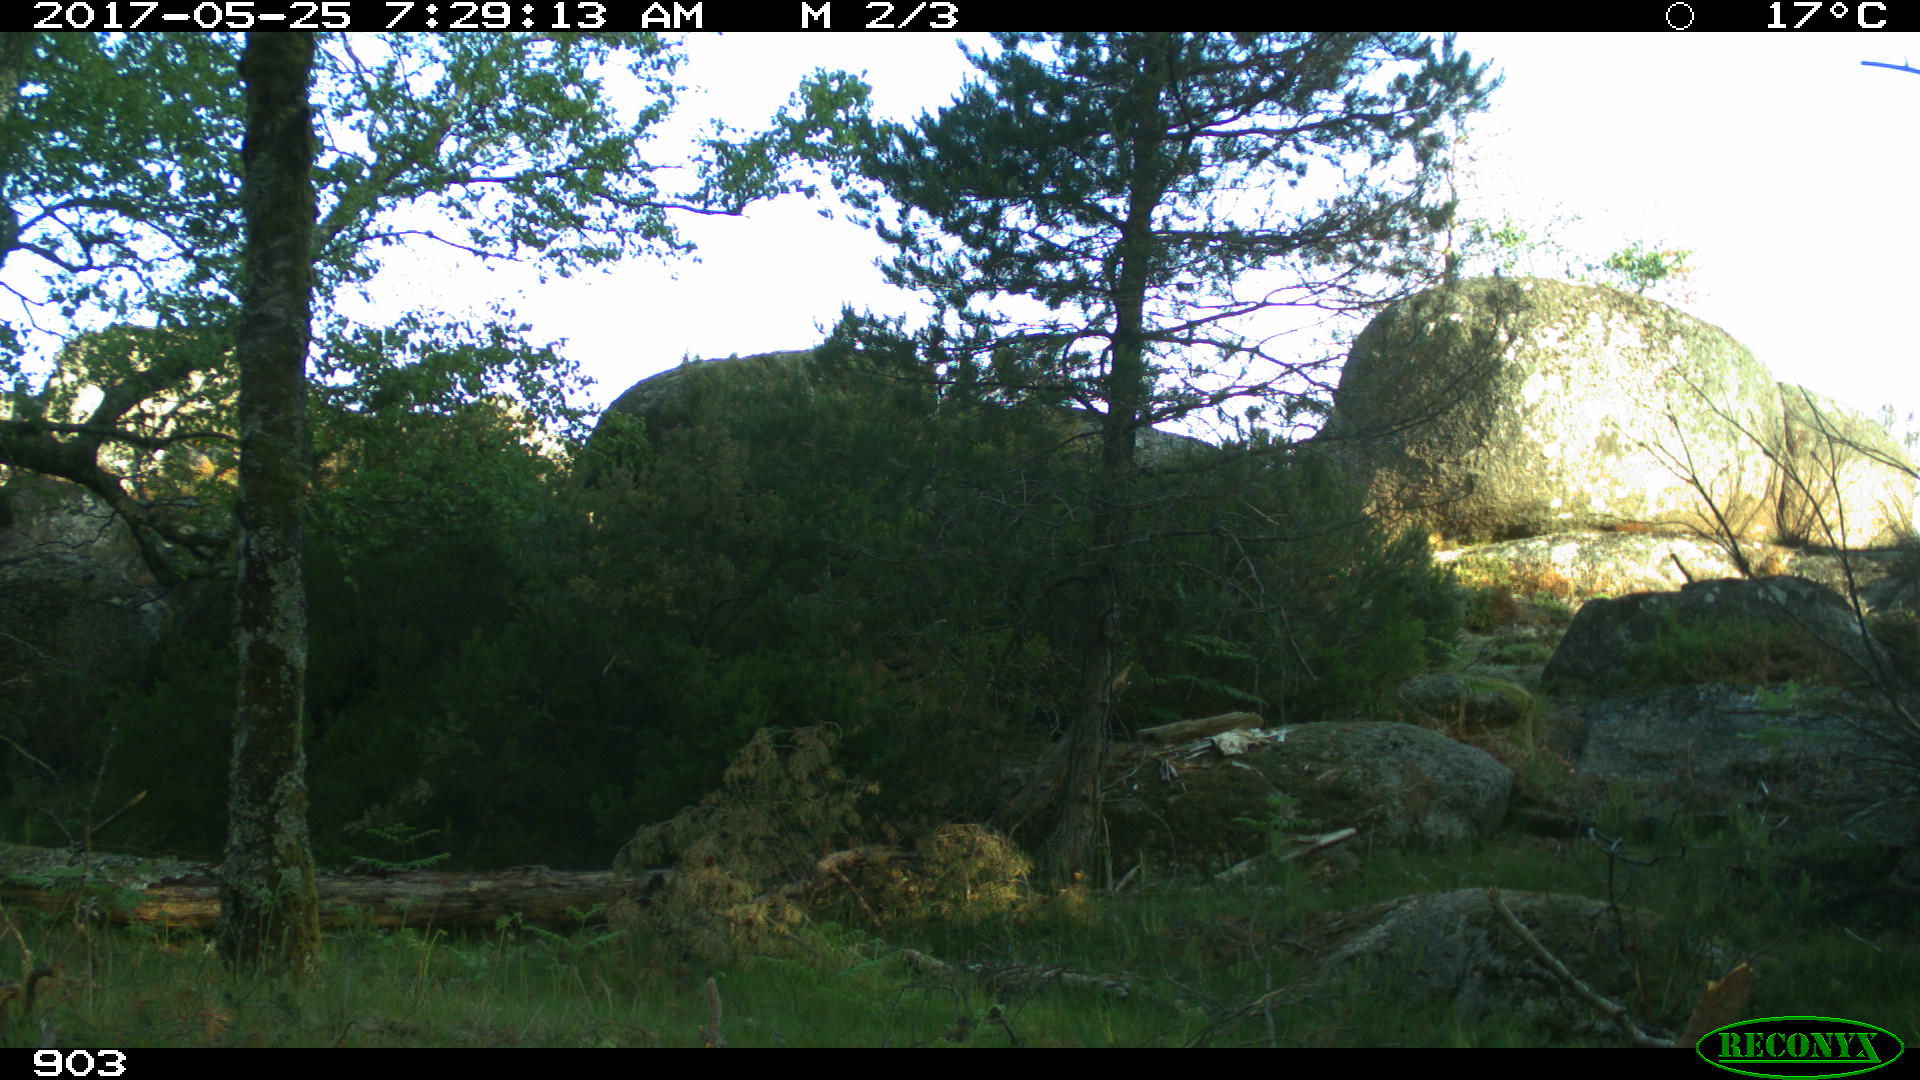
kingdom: Animalia
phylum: Chordata
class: Mammalia
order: Perissodactyla
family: Equidae
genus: Equus
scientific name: Equus caballus
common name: Horse
